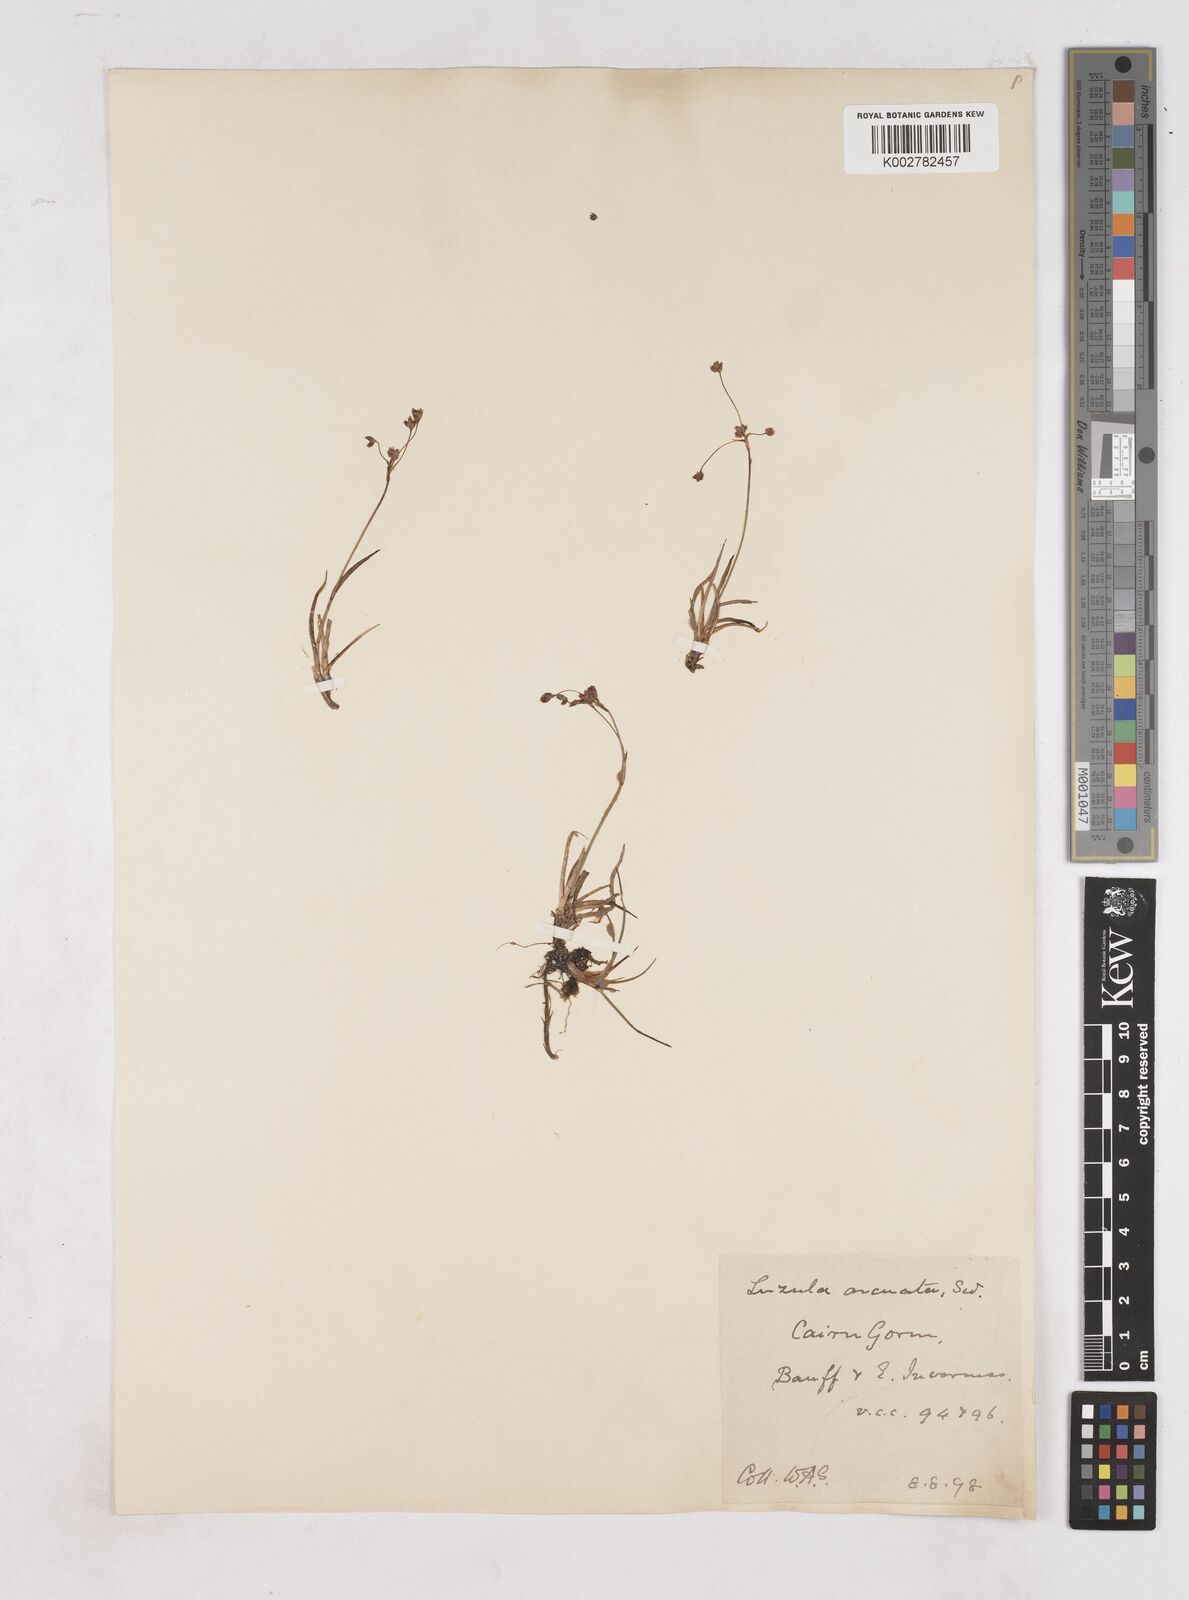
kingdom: Plantae
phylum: Tracheophyta
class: Liliopsida
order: Poales
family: Juncaceae
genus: Luzula
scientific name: Luzula arcuata
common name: Curved wood-rush
